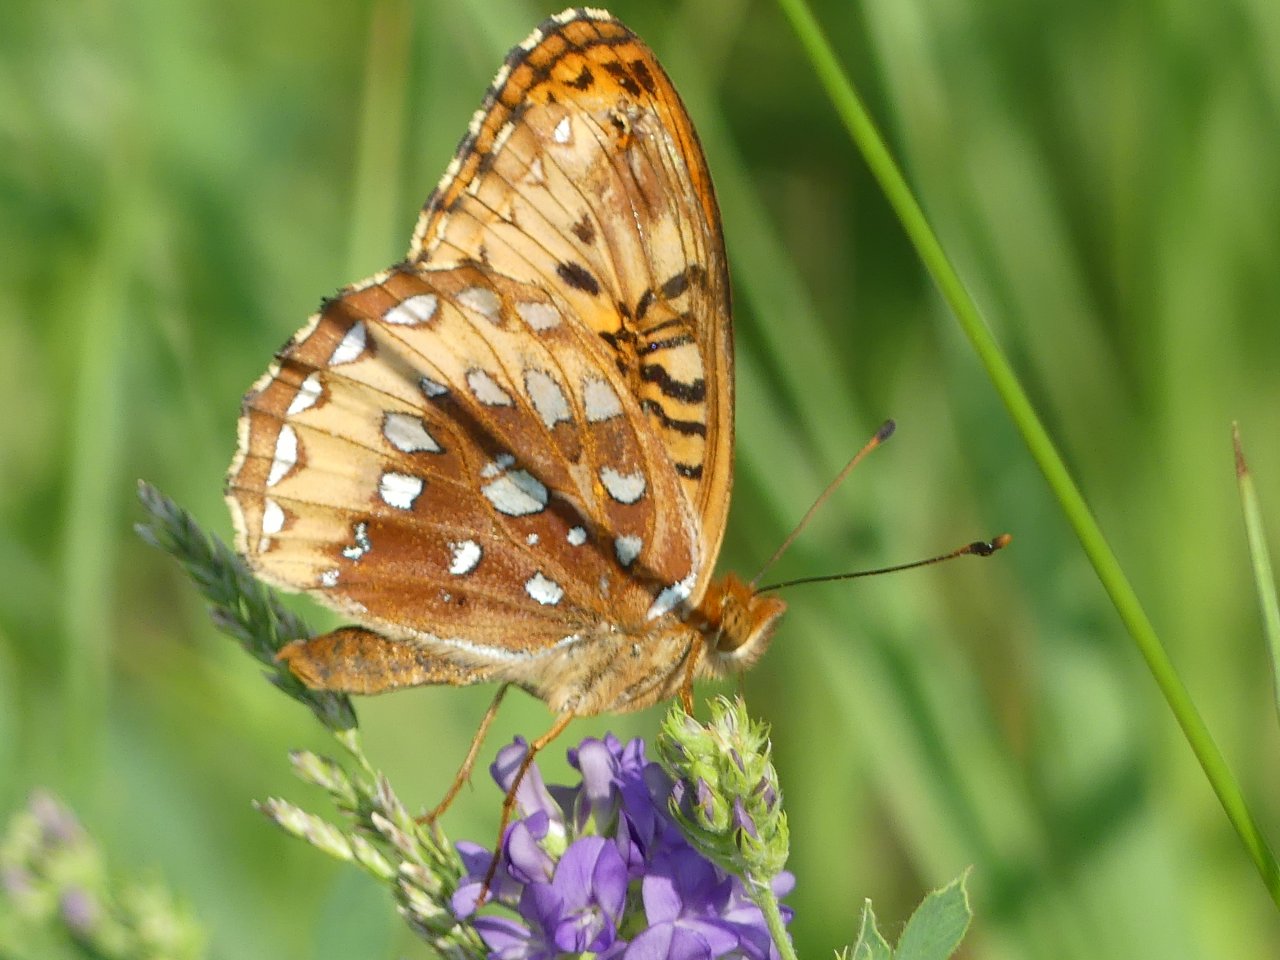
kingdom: Animalia
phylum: Arthropoda
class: Insecta
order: Lepidoptera
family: Nymphalidae
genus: Speyeria
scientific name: Speyeria aphrodite
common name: Aphrodite Fritillary
